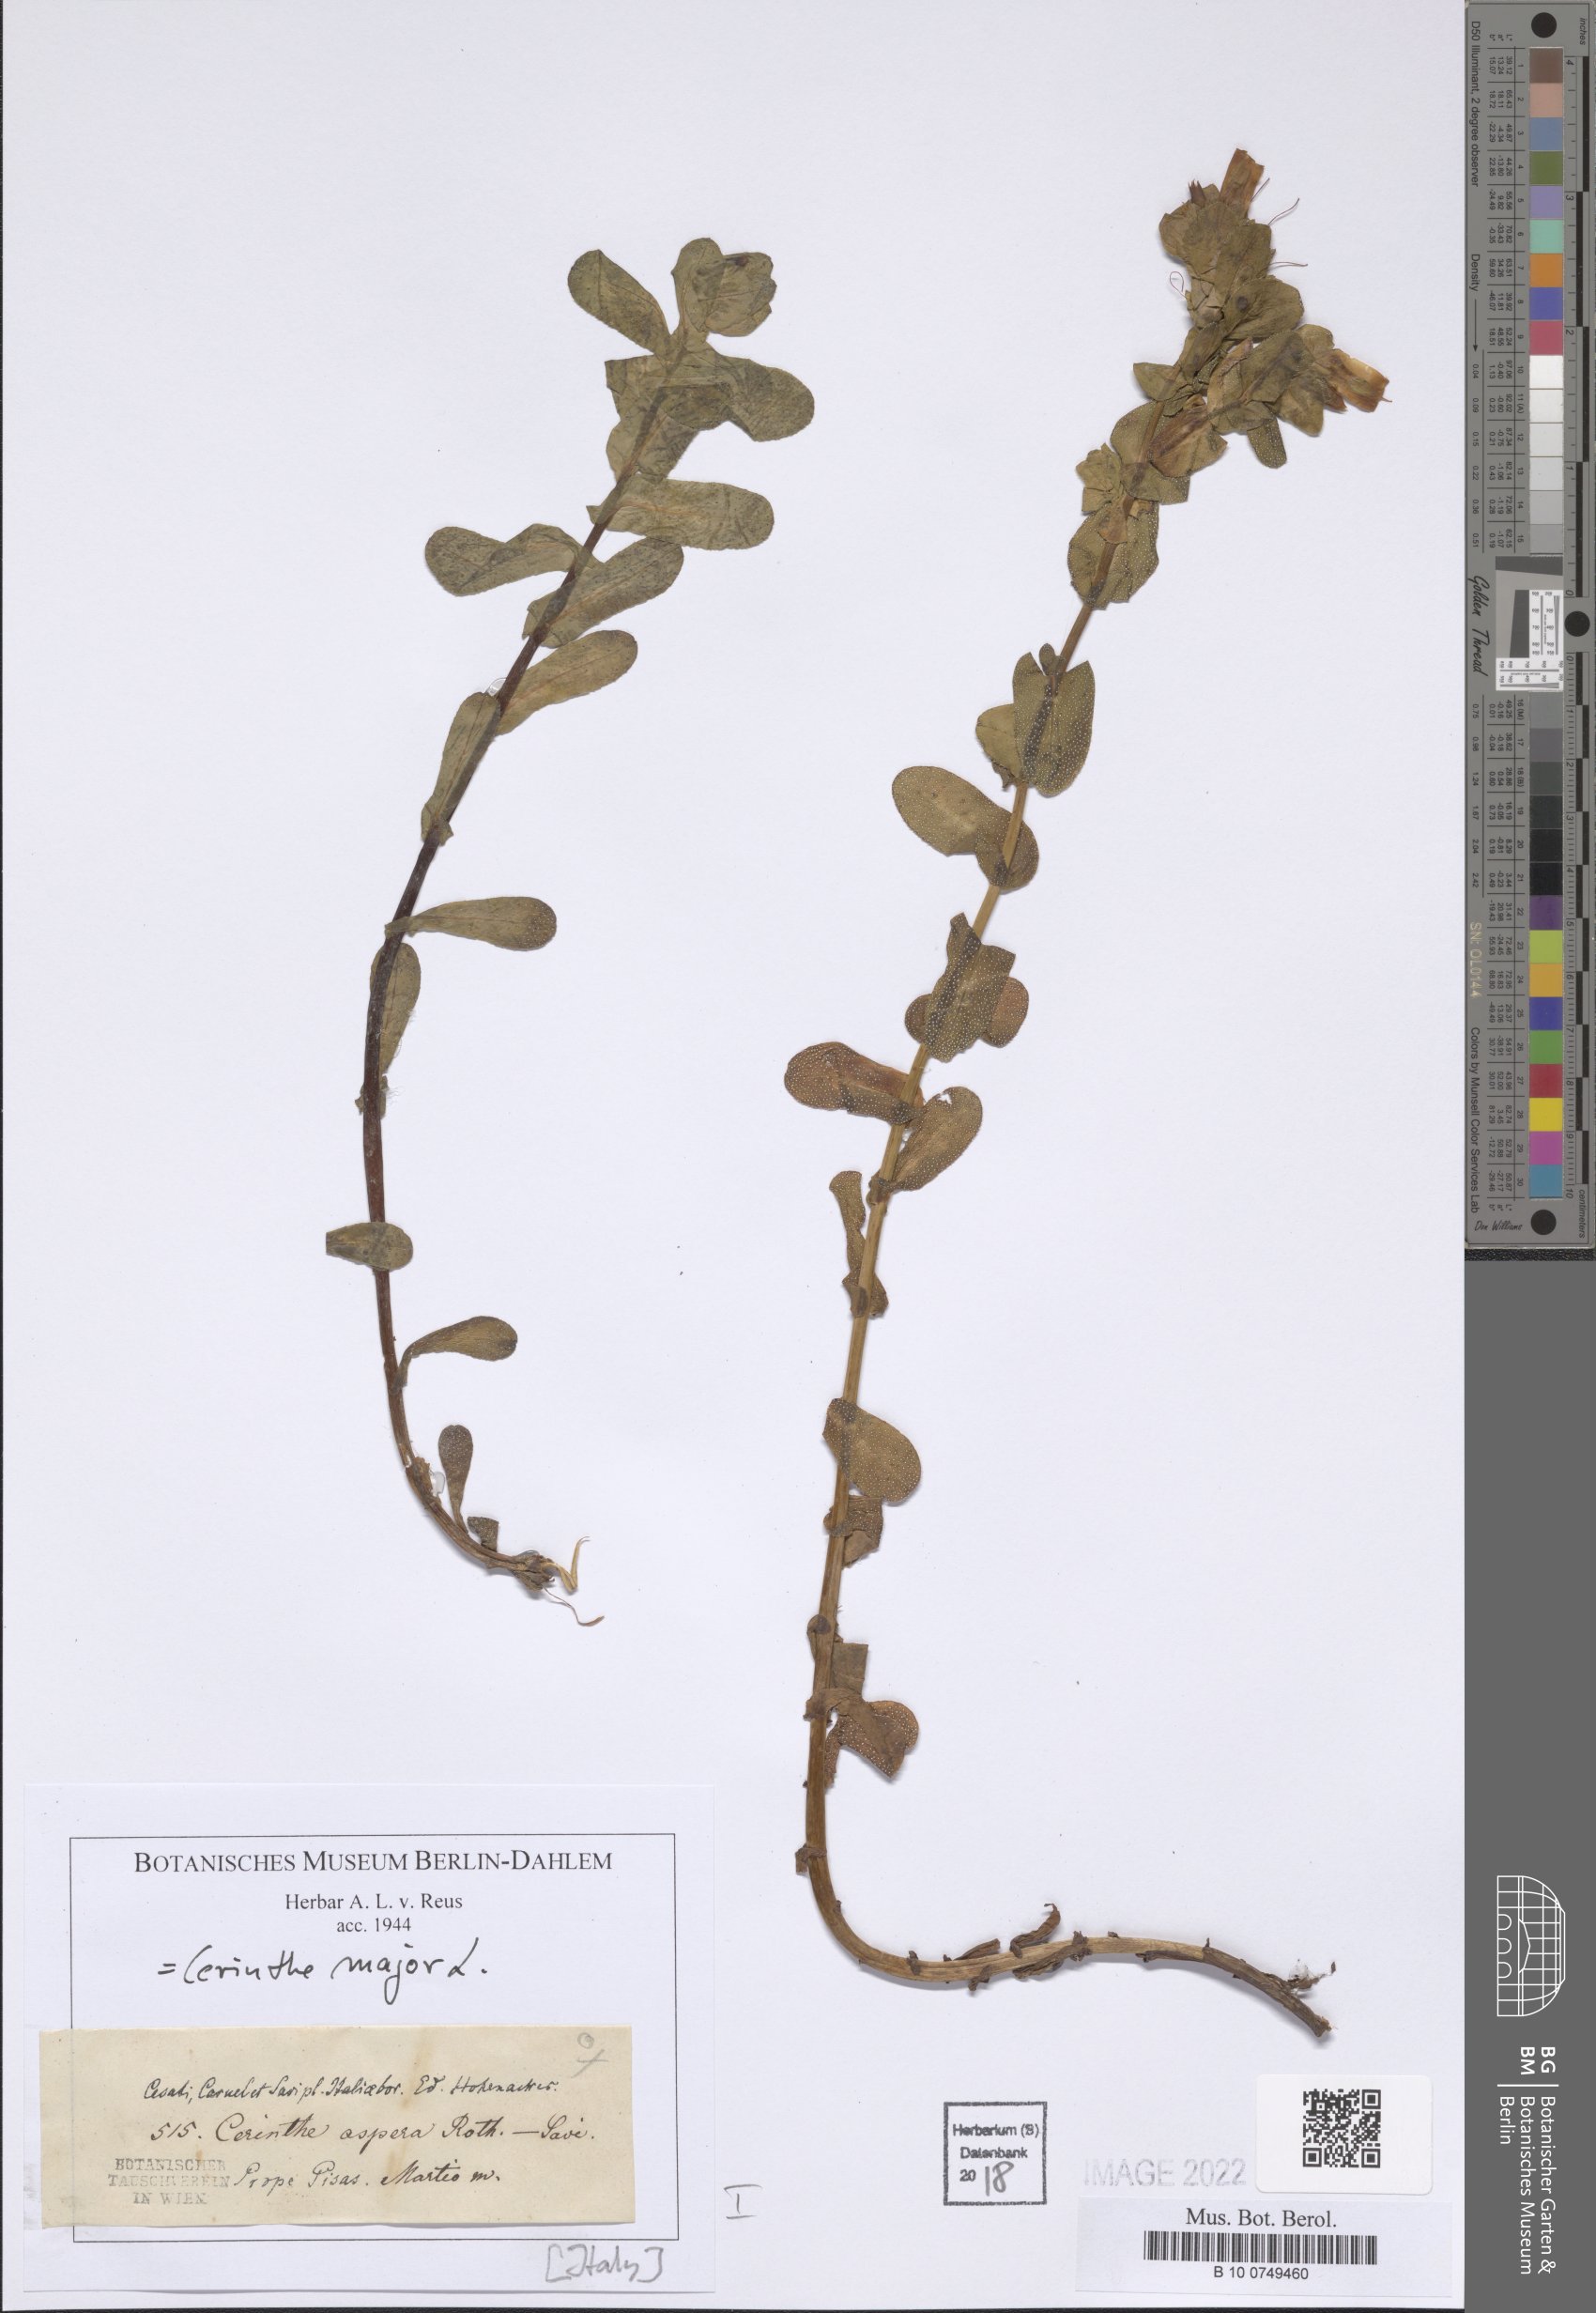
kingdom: Plantae
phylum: Tracheophyta
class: Magnoliopsida
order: Boraginales
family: Boraginaceae
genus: Cerinthe
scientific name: Cerinthe major
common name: Greater honeywort
